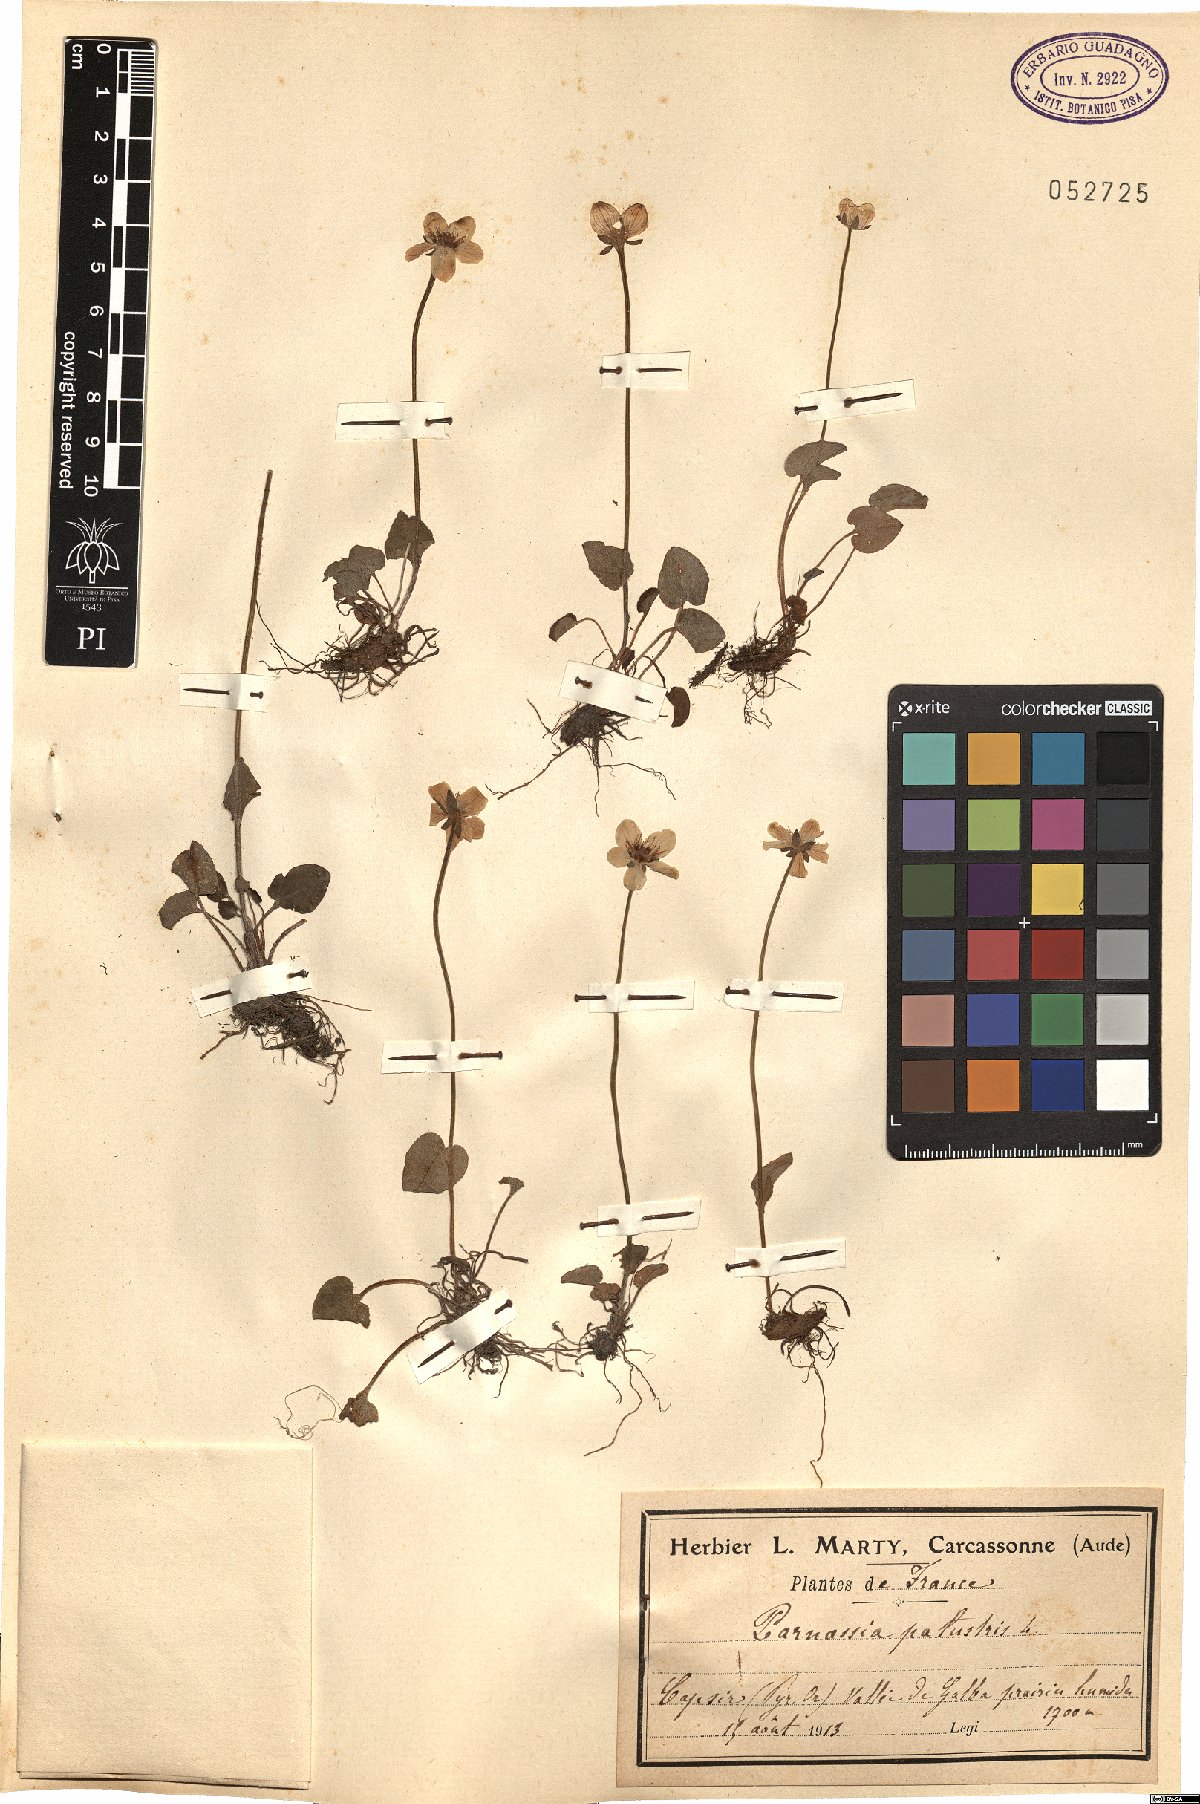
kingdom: Plantae
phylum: Tracheophyta
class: Magnoliopsida
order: Celastrales
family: Parnassiaceae
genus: Parnassia
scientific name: Parnassia palustris
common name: Grass-of-parnassus
